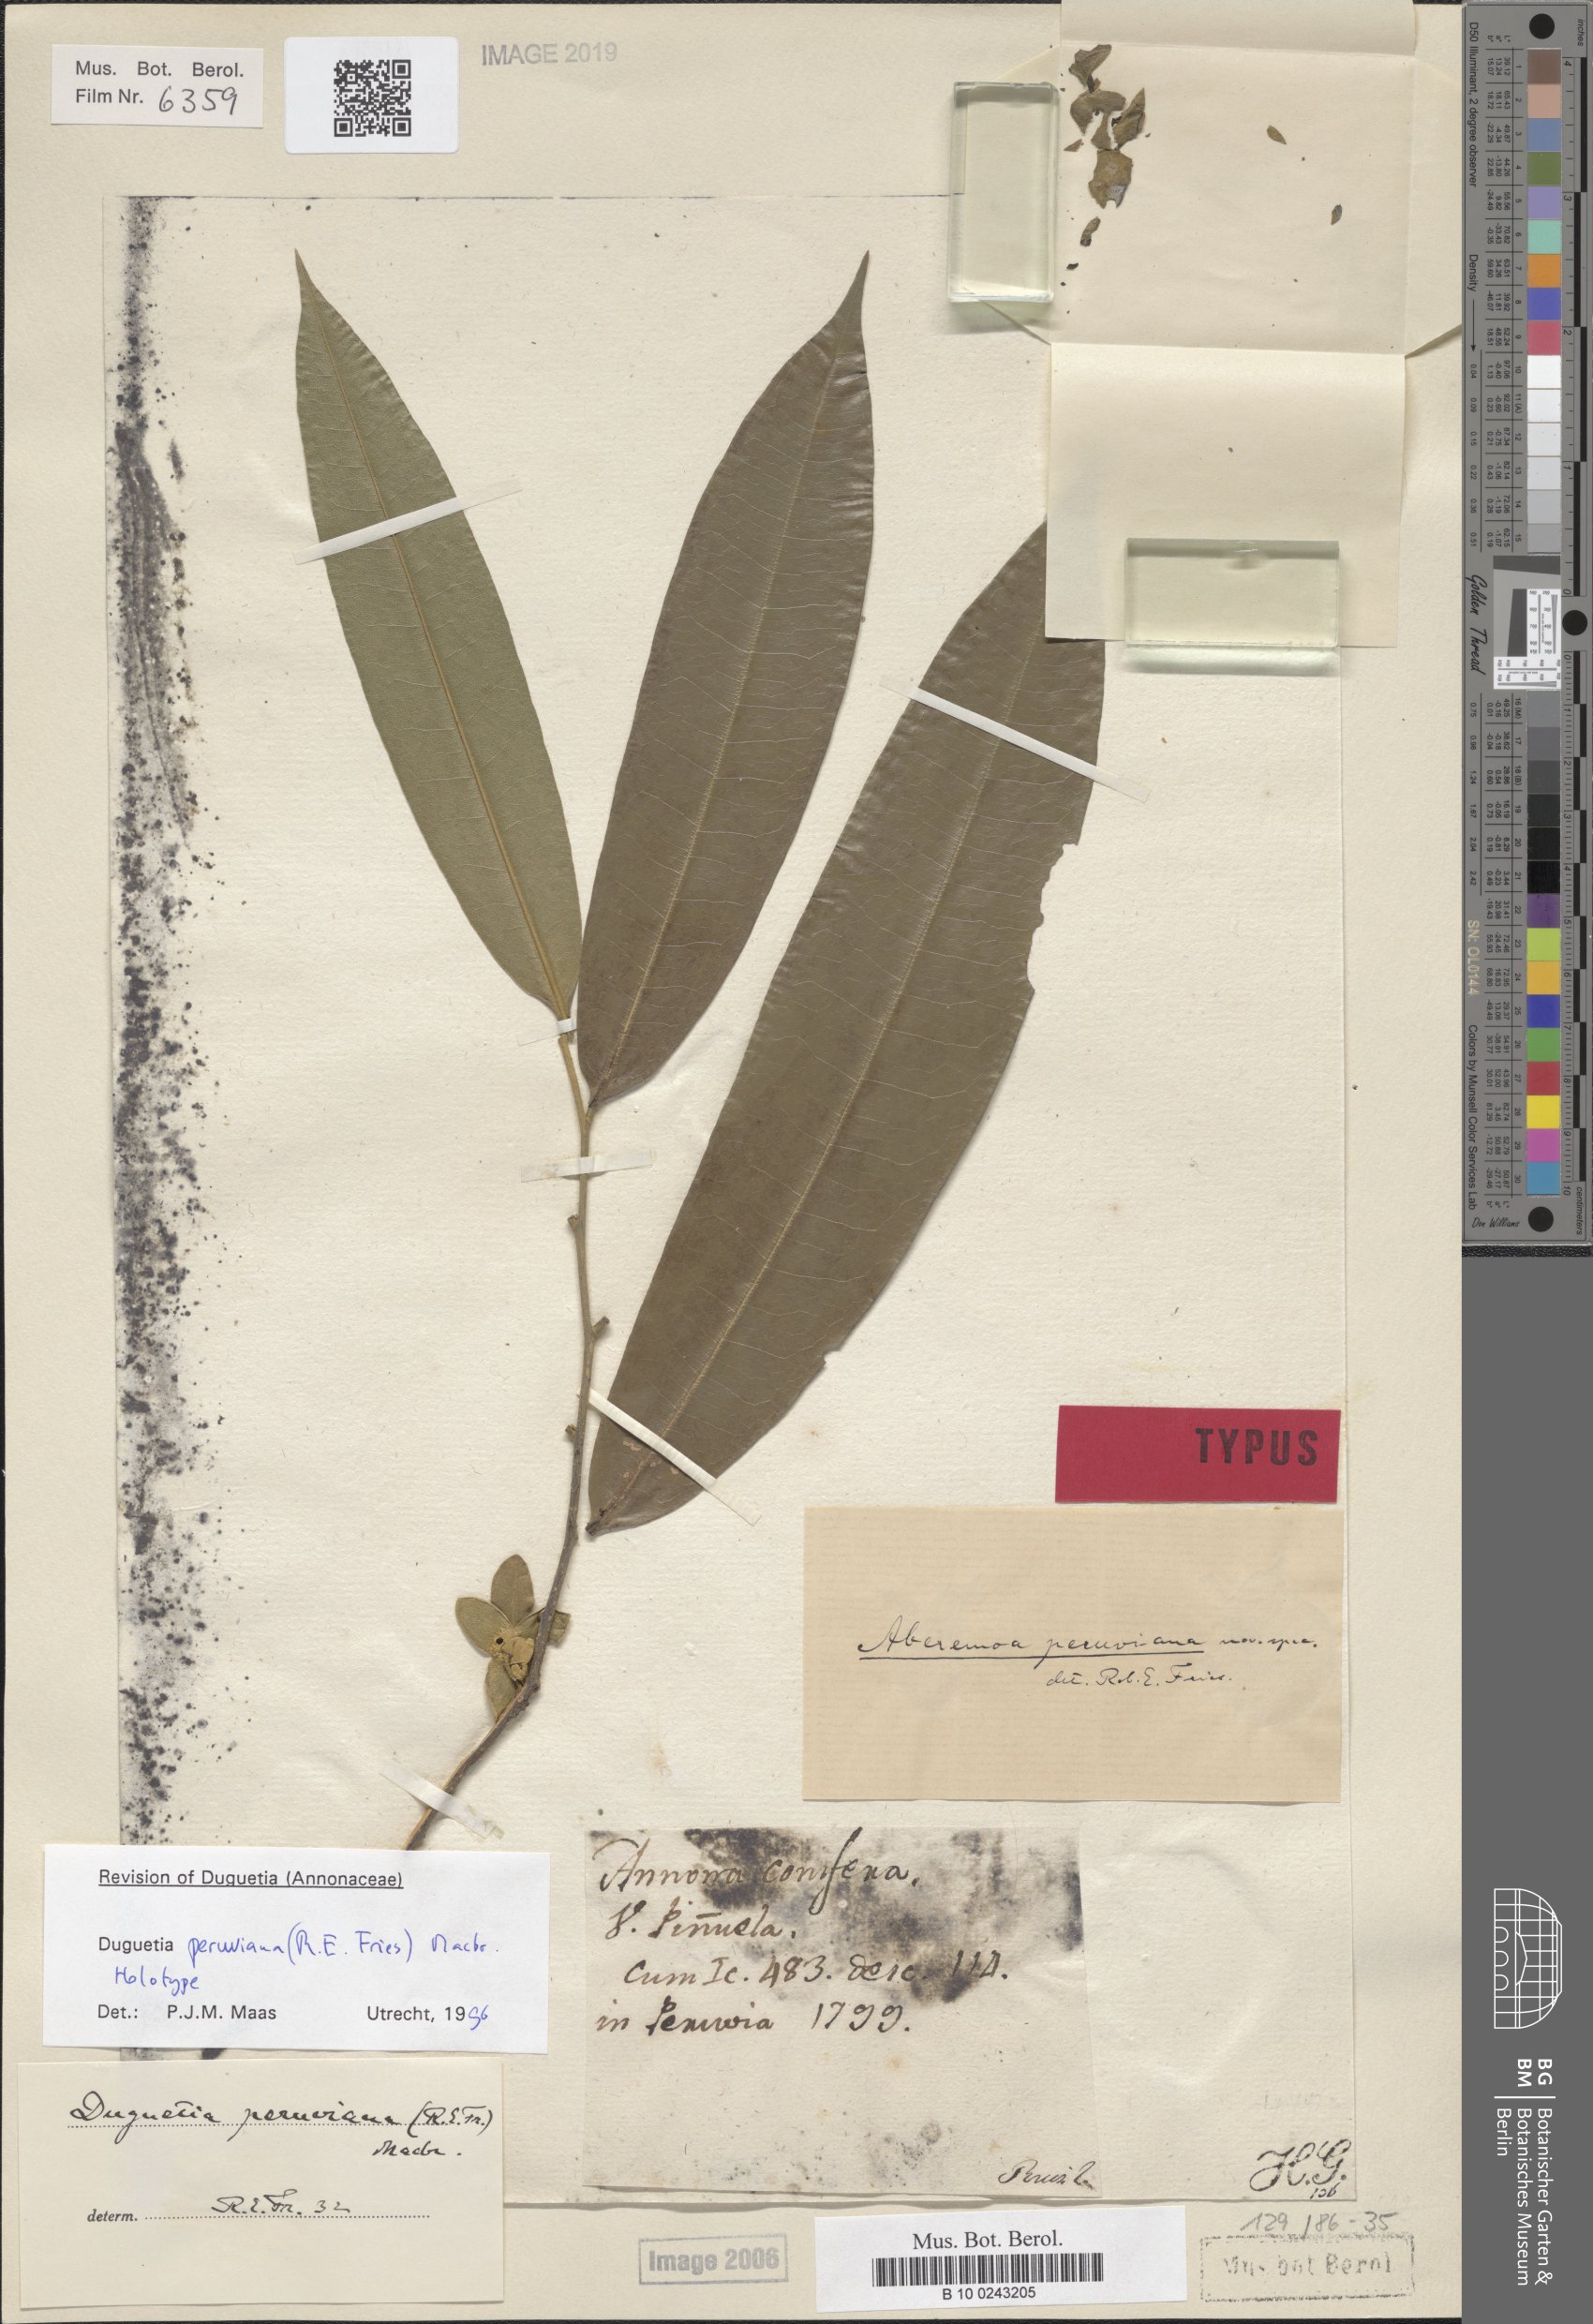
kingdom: Plantae
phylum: Tracheophyta
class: Magnoliopsida
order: Magnoliales
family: Annonaceae
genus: Duguetia
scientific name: Duguetia peruviana
